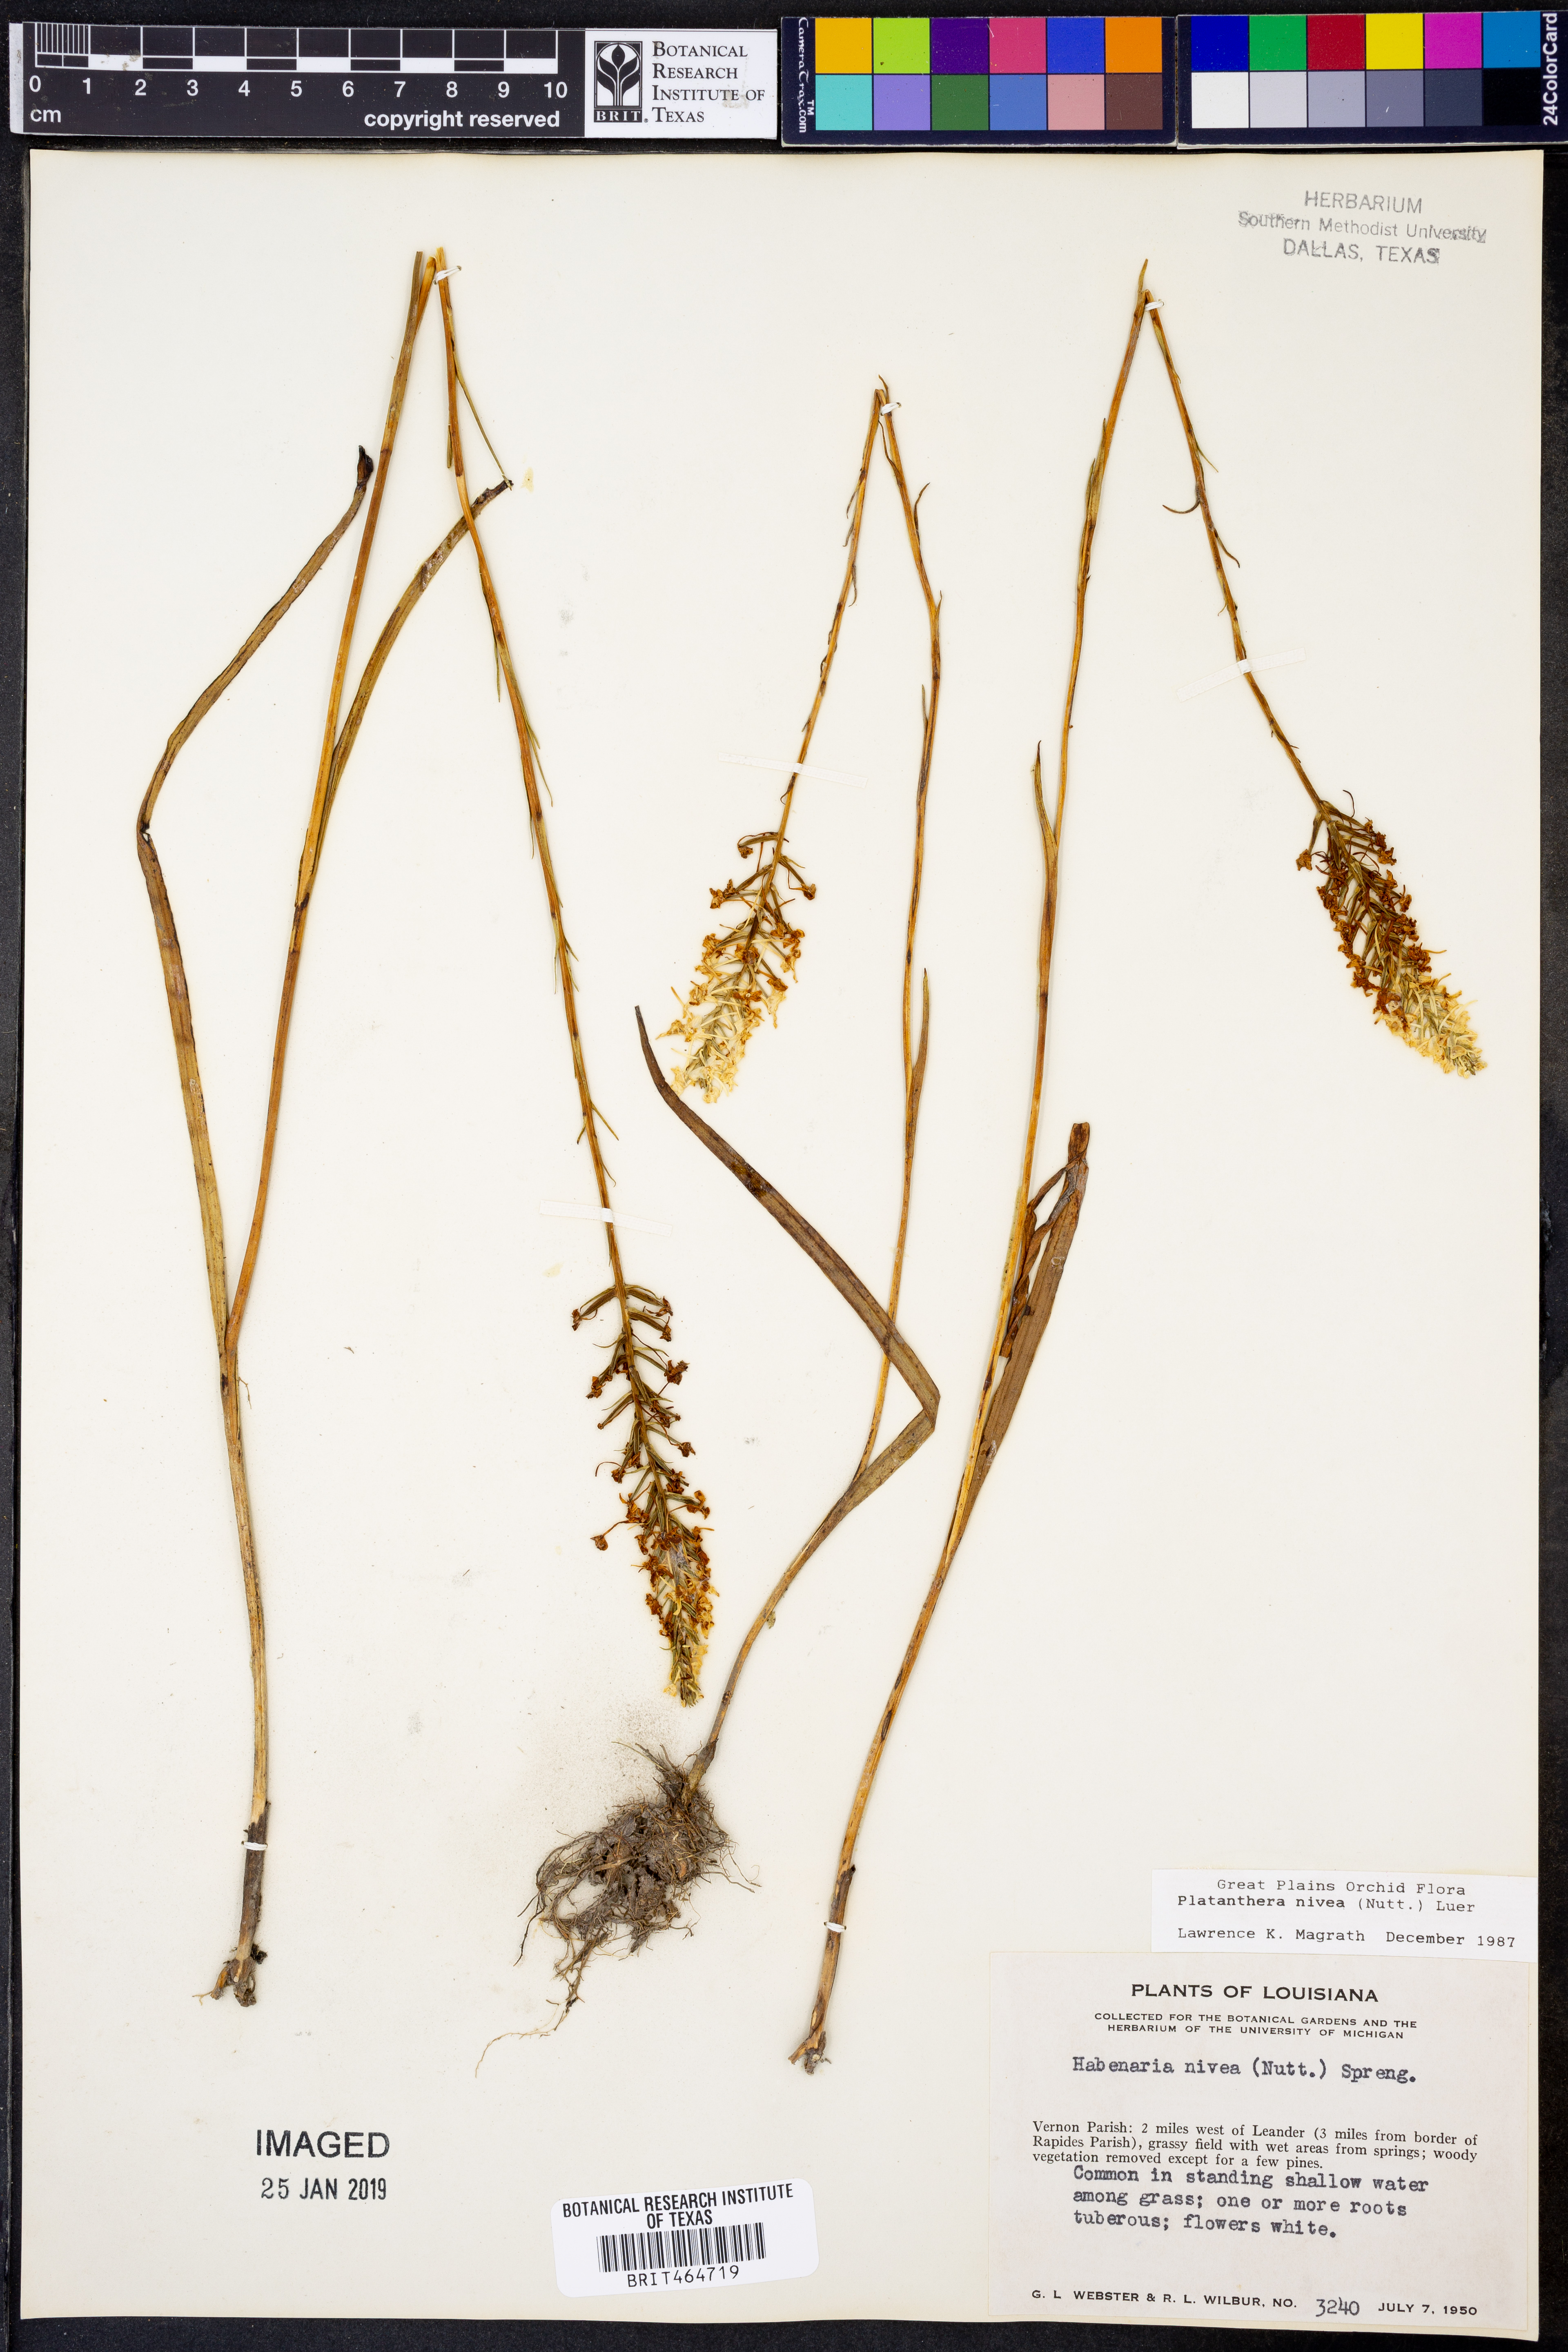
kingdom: Plantae
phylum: Tracheophyta
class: Liliopsida
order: Asparagales
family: Orchidaceae
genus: Platanthera
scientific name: Platanthera nivea
